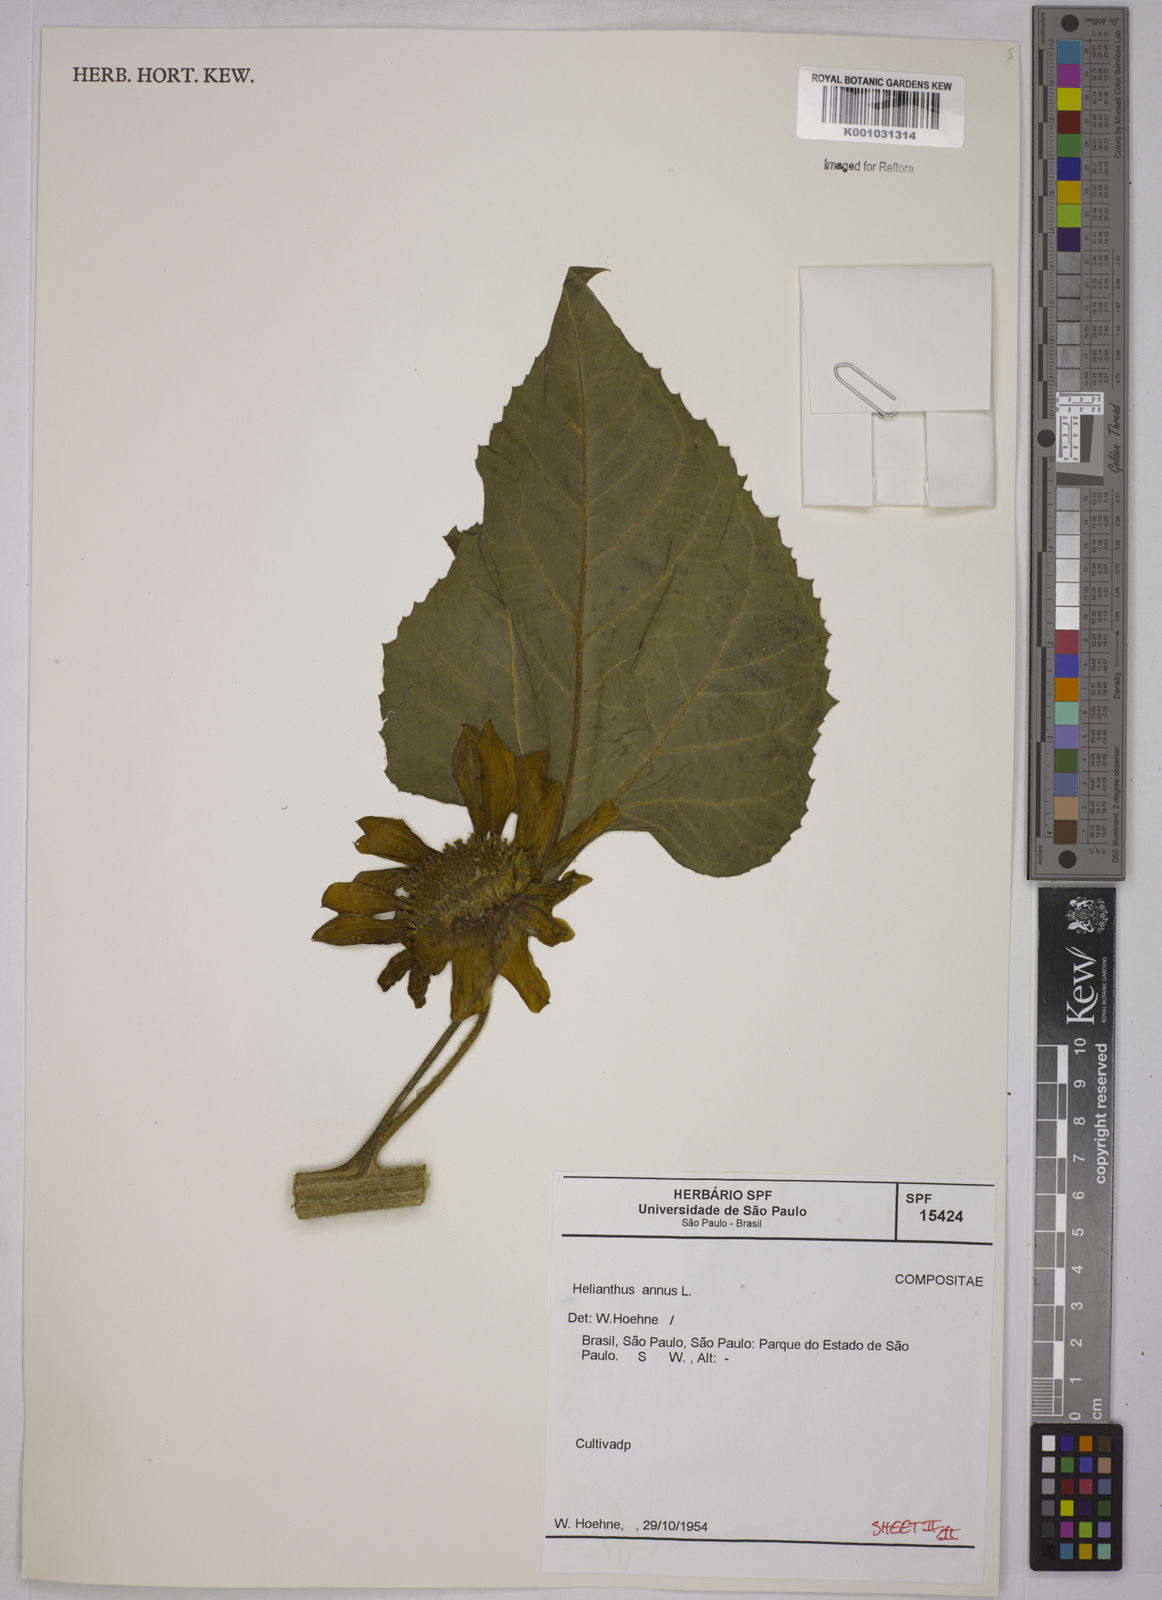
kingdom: Plantae
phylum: Tracheophyta
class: Magnoliopsida
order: Asterales
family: Asteraceae
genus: Helianthus
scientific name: Helianthus annuus
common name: Sunflower
